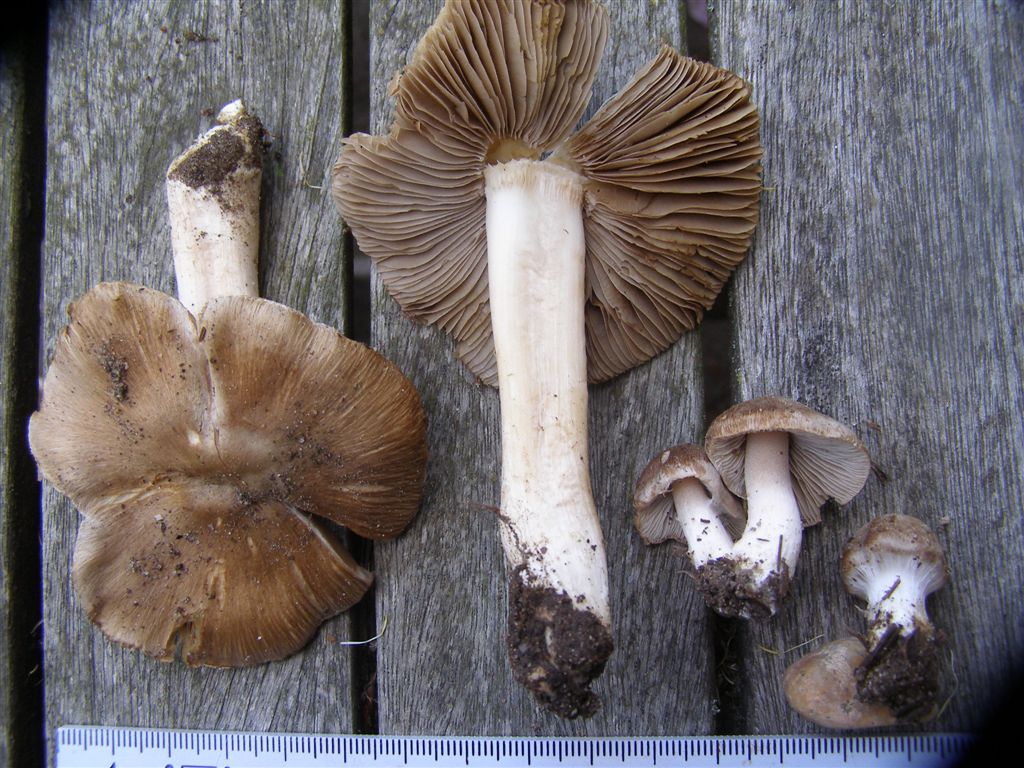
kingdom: Fungi
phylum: Basidiomycota
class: Agaricomycetes
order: Agaricales
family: Inocybaceae
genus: Inocybe
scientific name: Inocybe
